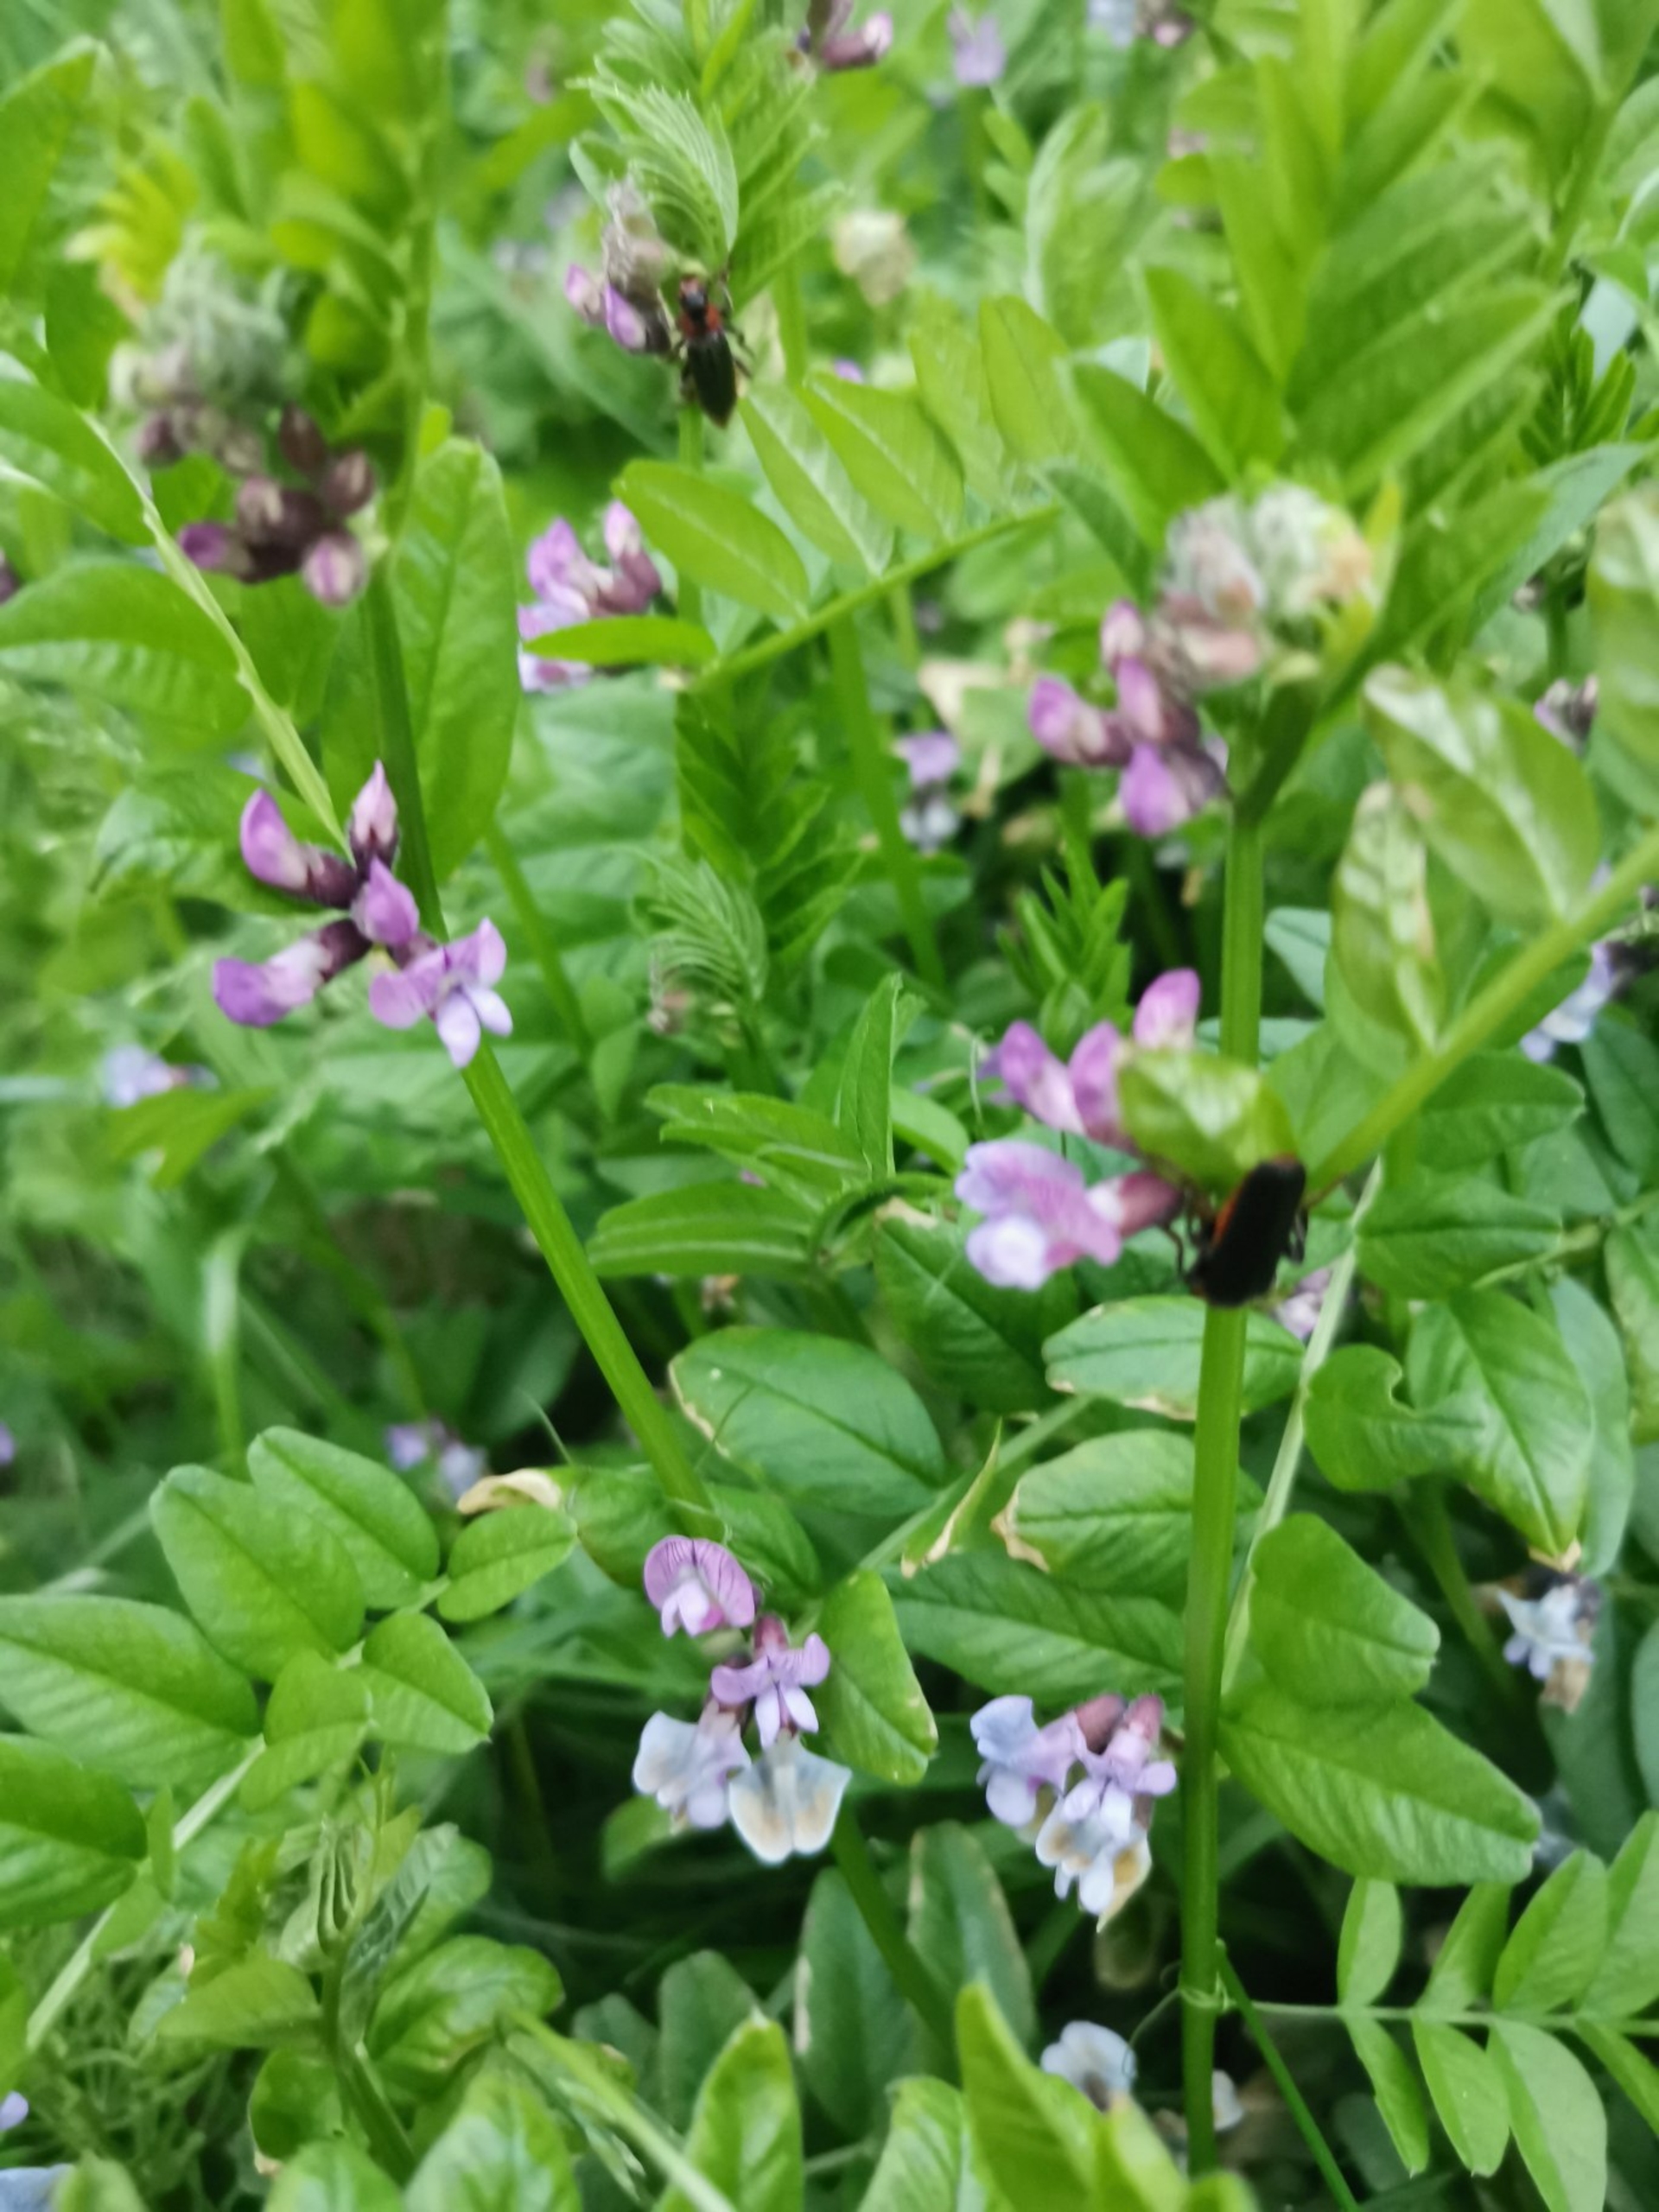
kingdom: Plantae
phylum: Tracheophyta
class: Magnoliopsida
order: Fabales
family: Fabaceae
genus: Vicia
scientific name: Vicia sepium
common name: Gærde-vikke
